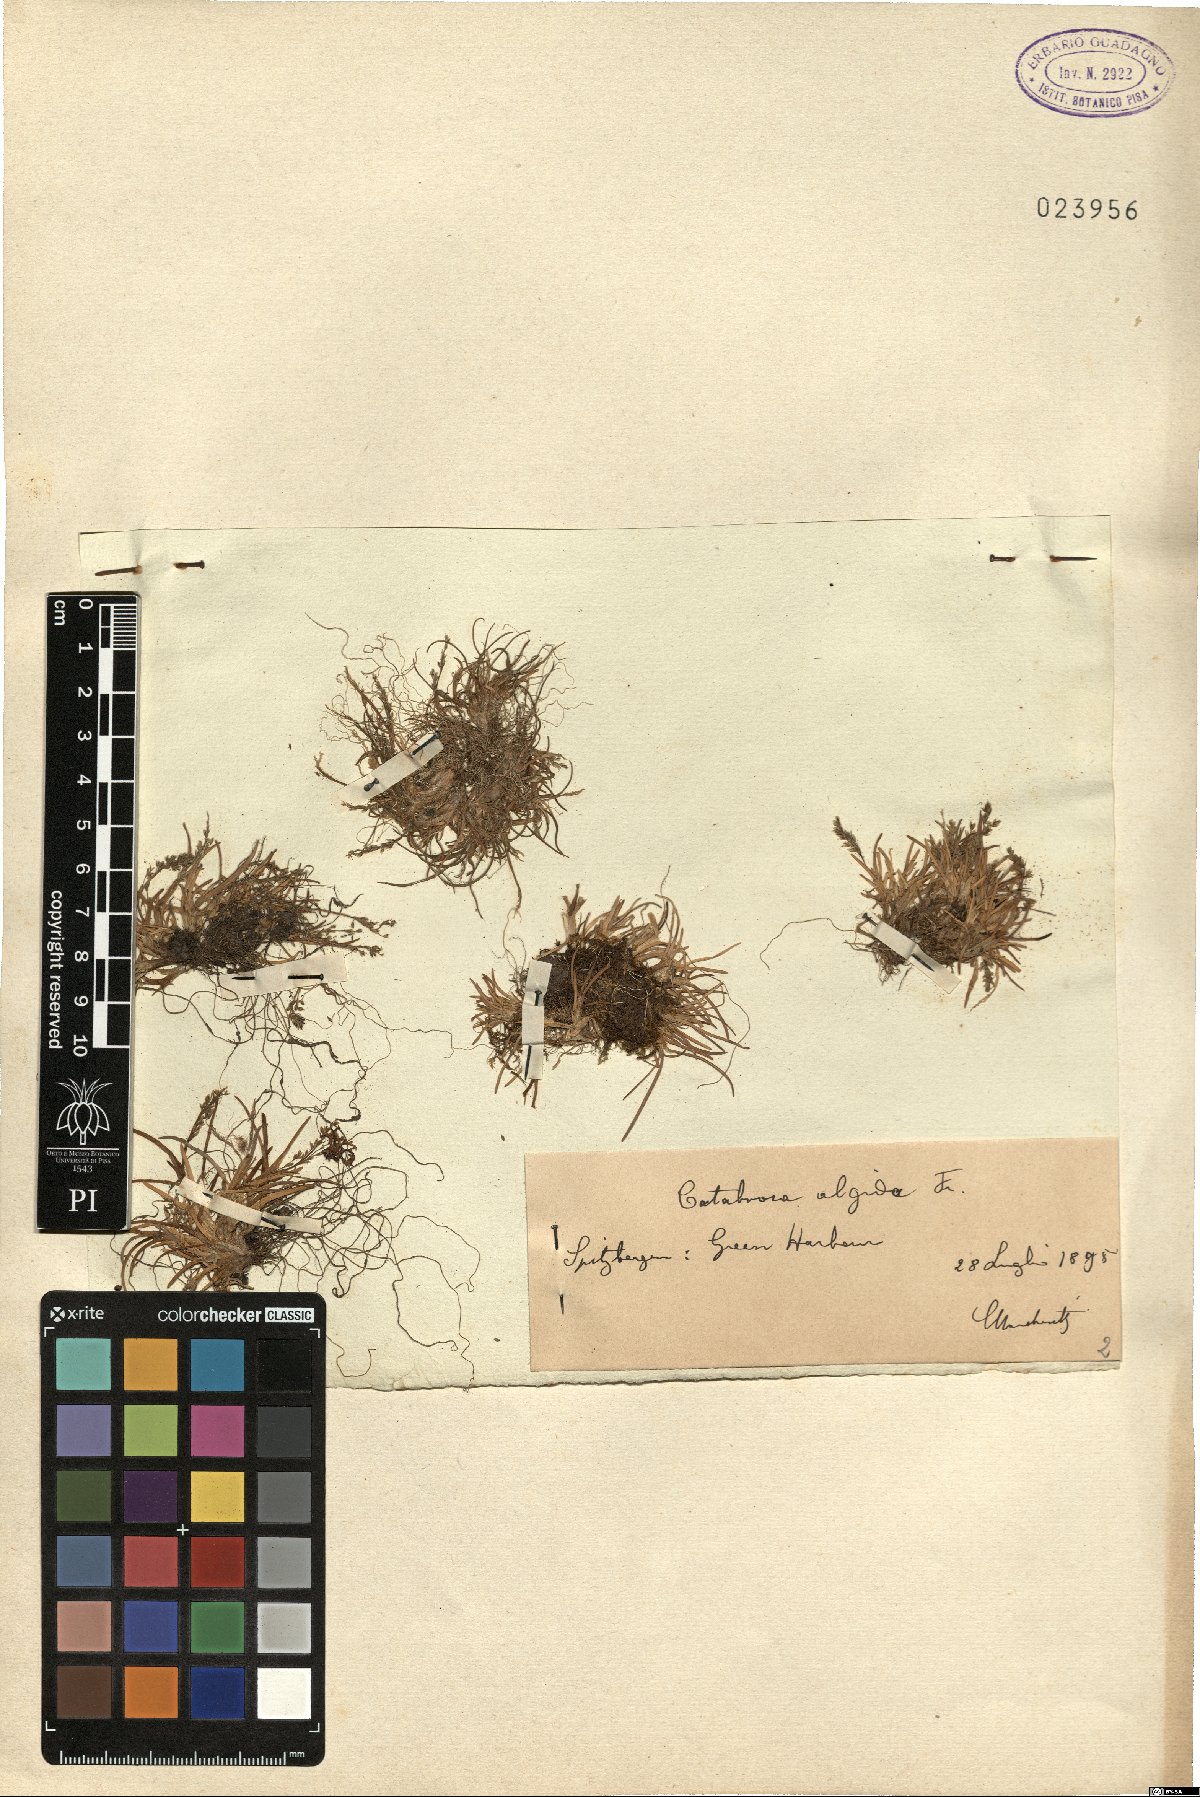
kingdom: Plantae
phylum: Tracheophyta
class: Liliopsida
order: Poales
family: Poaceae
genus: Phippsia
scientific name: Phippsia algida
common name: Ice grass
